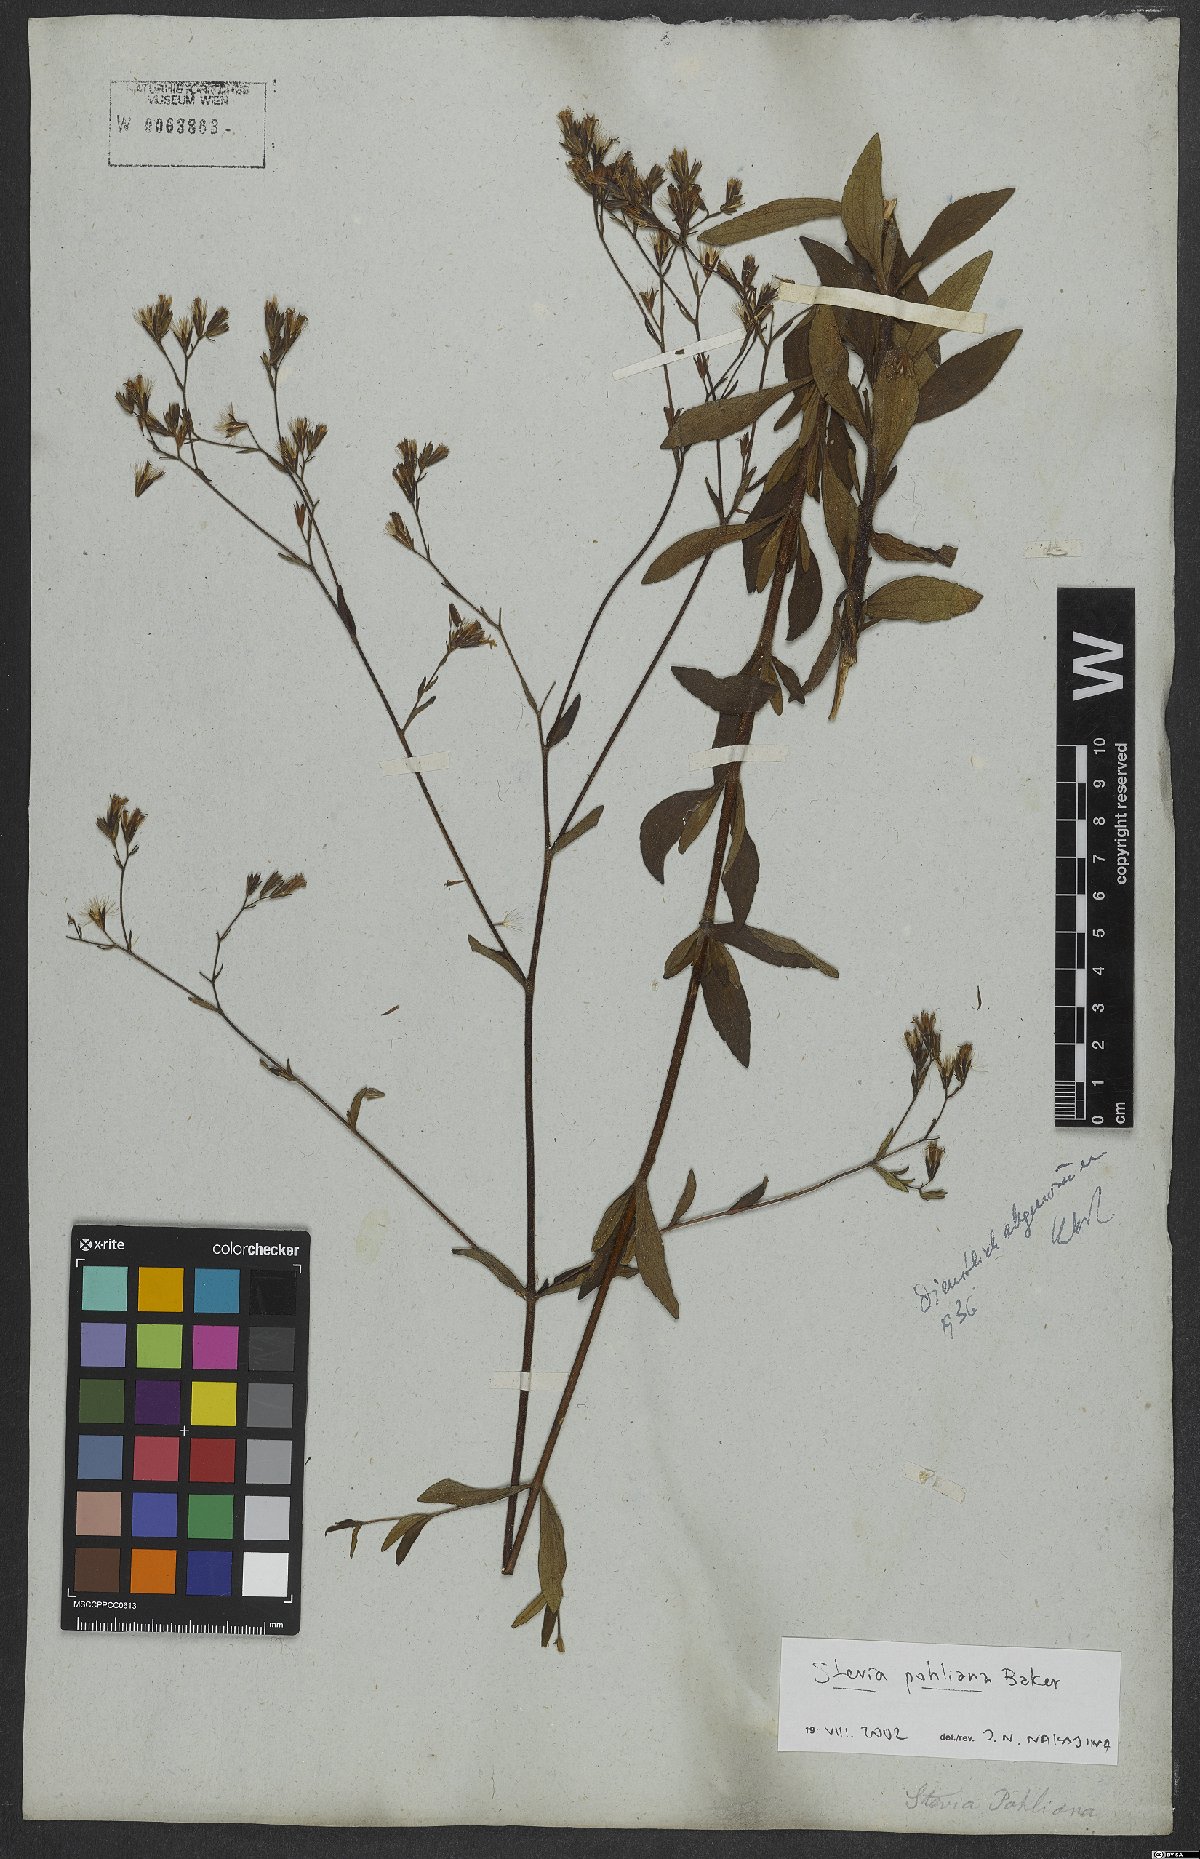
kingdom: Plantae
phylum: Tracheophyta
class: Magnoliopsida
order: Asterales
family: Asteraceae
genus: Stevia
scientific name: Stevia pohliana
